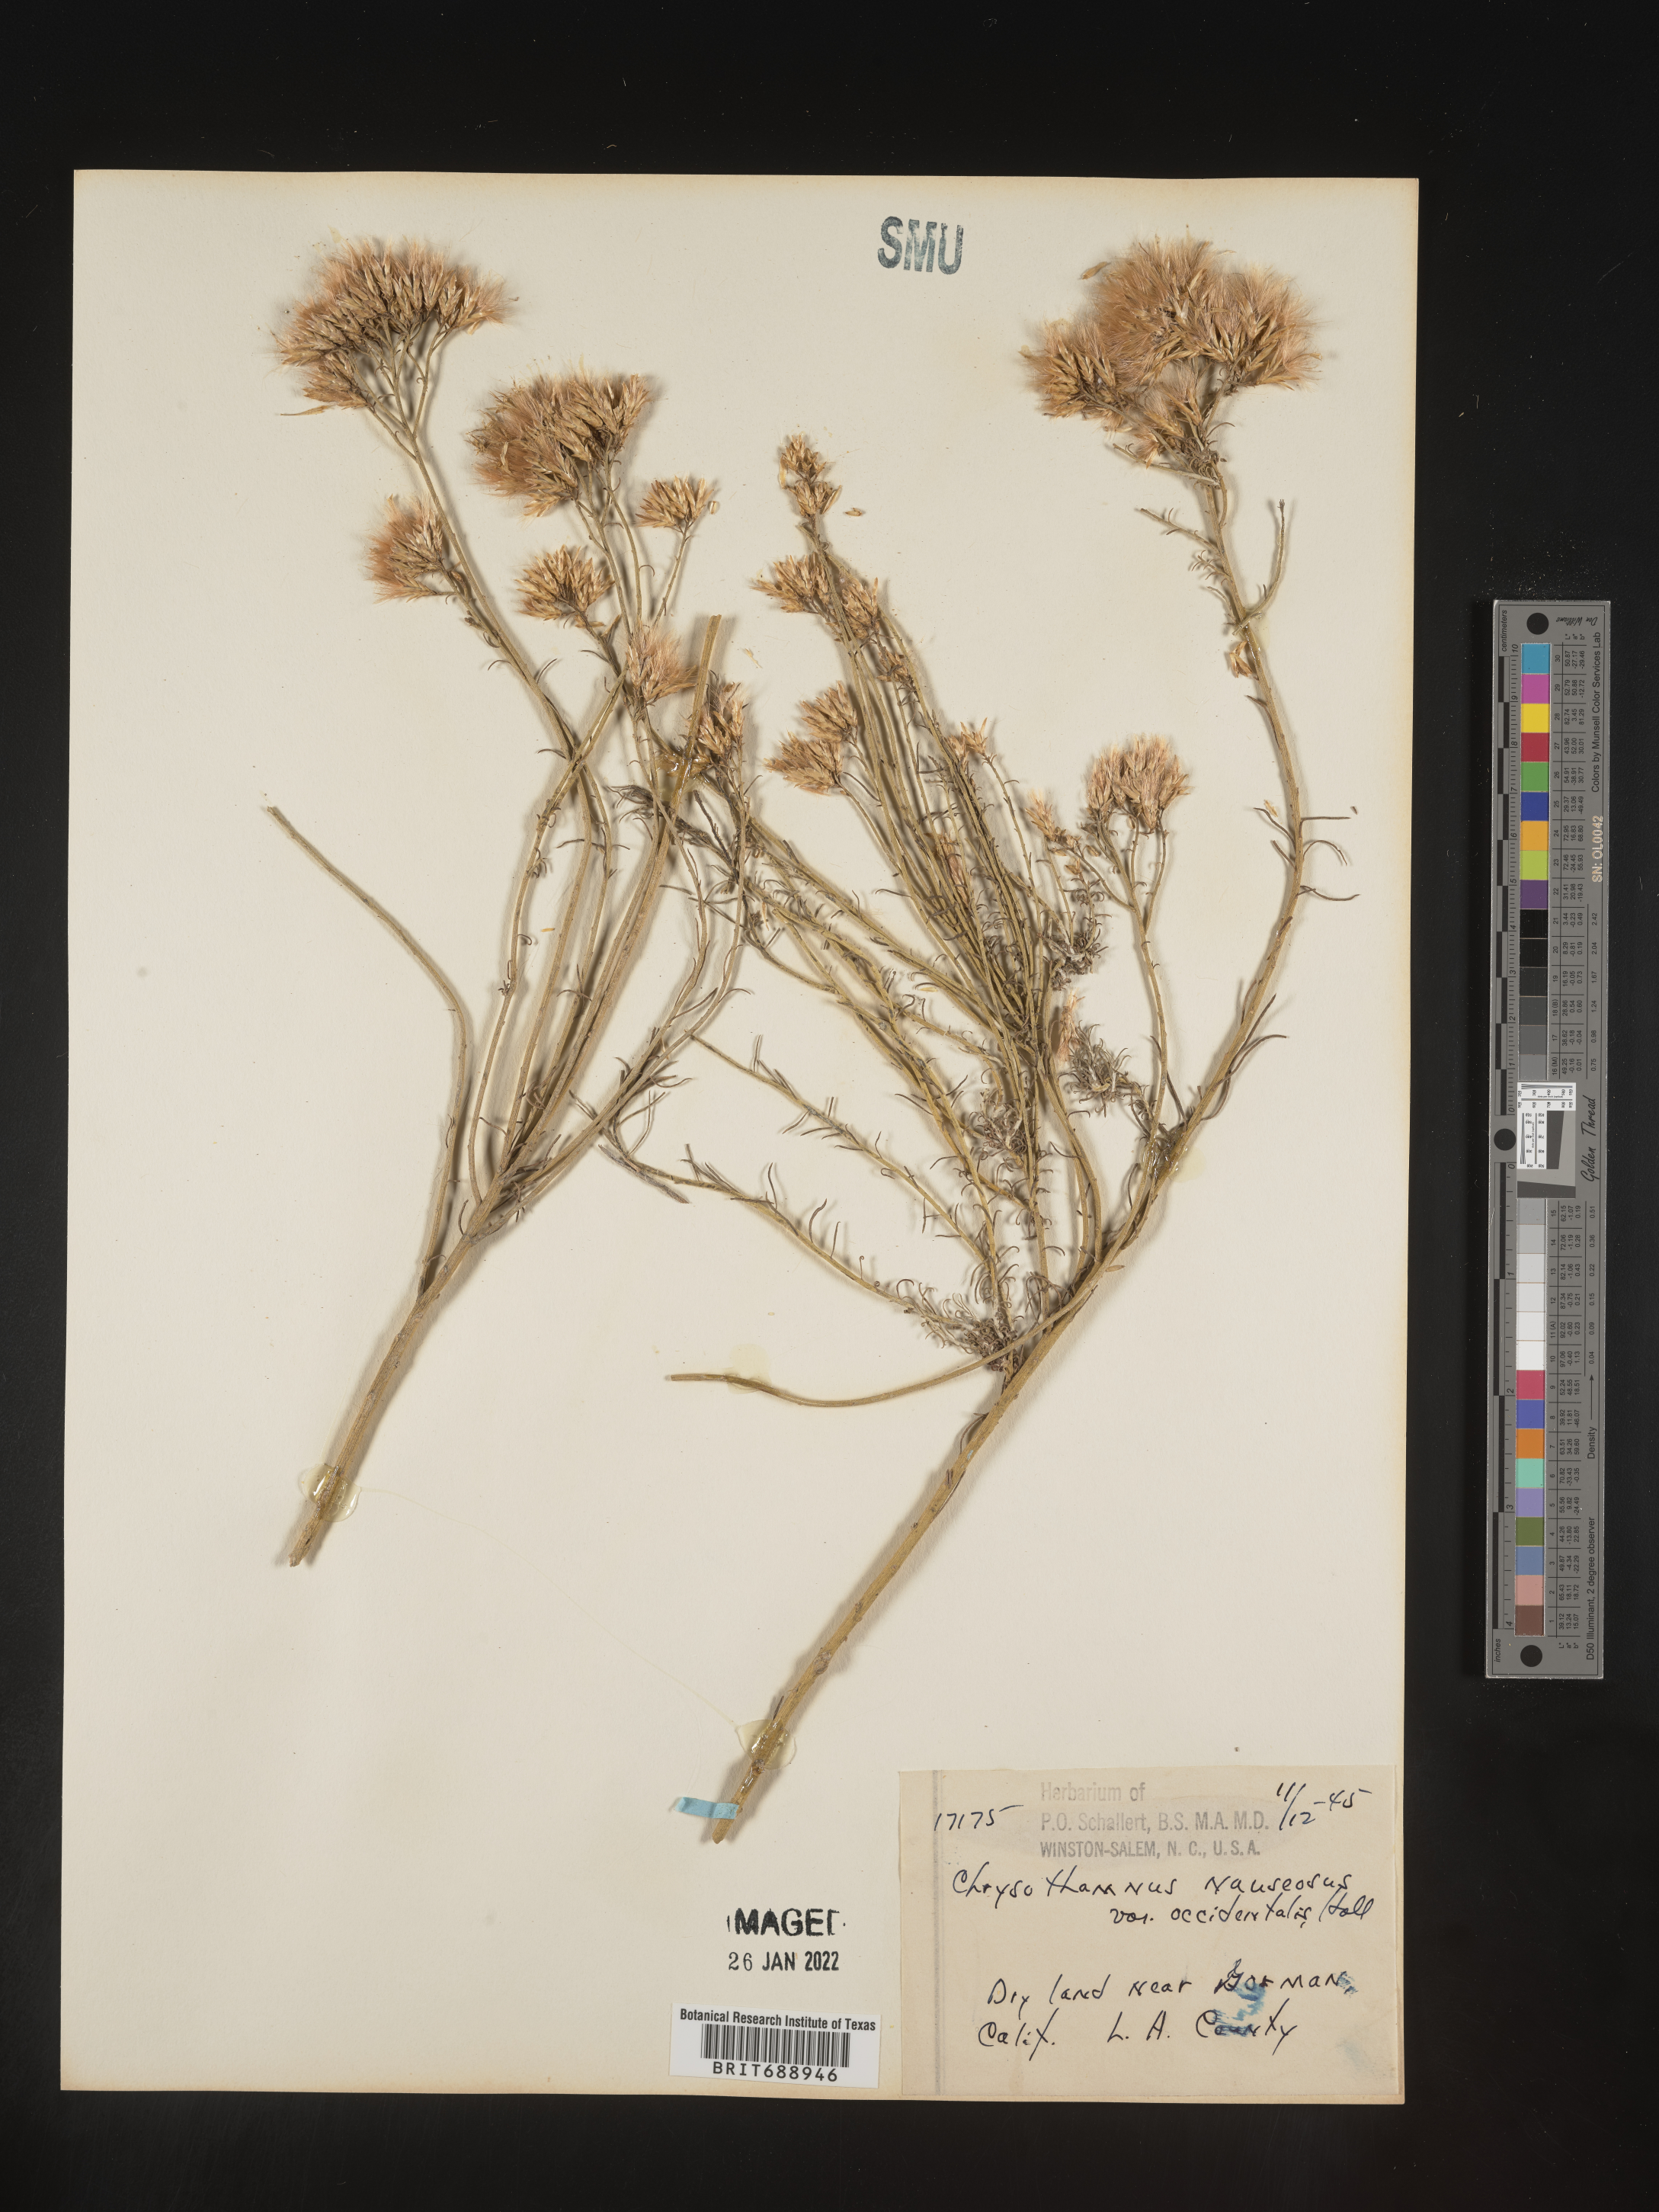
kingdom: Plantae
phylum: Tracheophyta
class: Magnoliopsida
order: Asterales
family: Asteraceae
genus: Ericameria
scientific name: Ericameria nauseosa
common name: Rubber rabbitbrush
